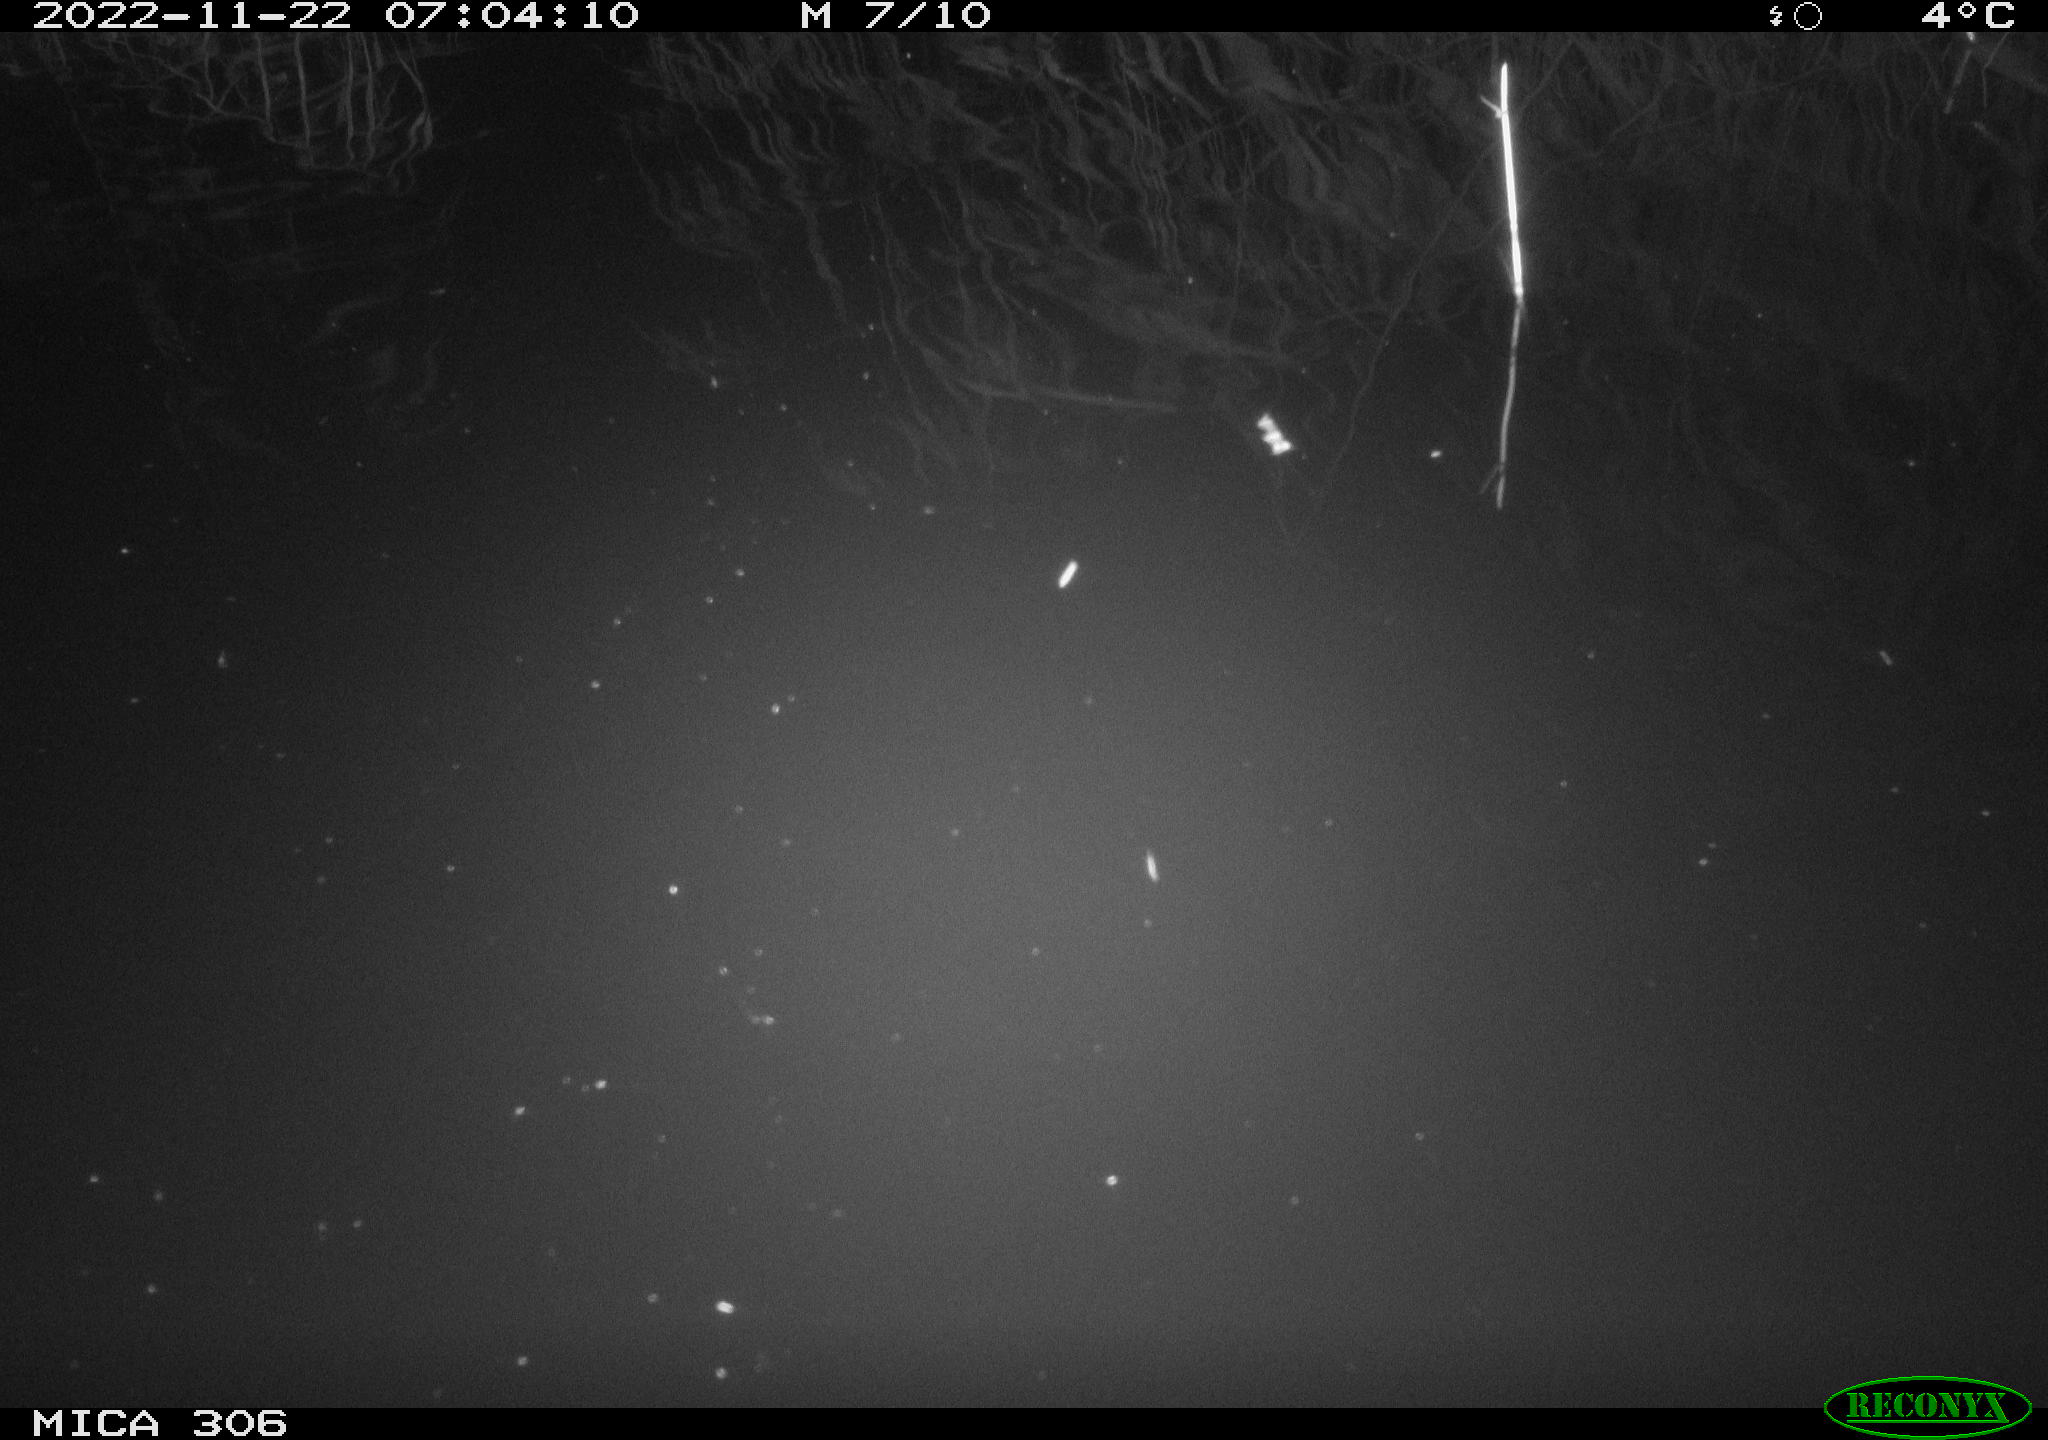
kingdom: Animalia
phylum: Chordata
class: Mammalia
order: Rodentia
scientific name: Rodentia
